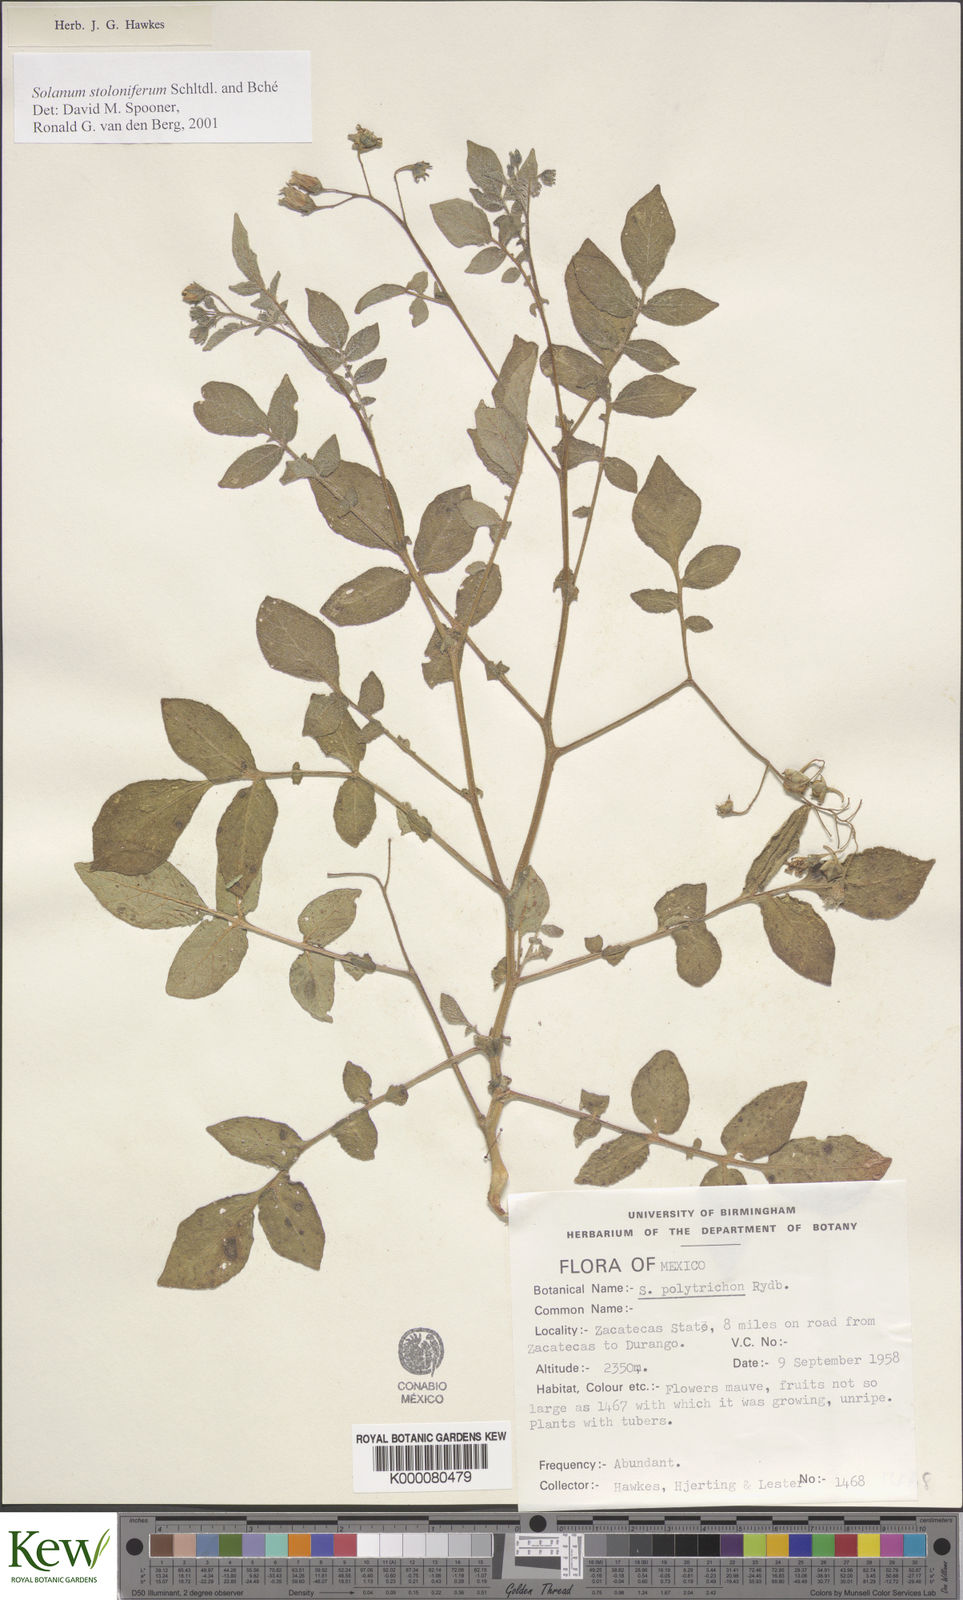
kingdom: Plantae
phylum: Tracheophyta
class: Magnoliopsida
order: Solanales
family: Solanaceae
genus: Solanum
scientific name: Solanum stoloniferum
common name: Fendler's nighshade
